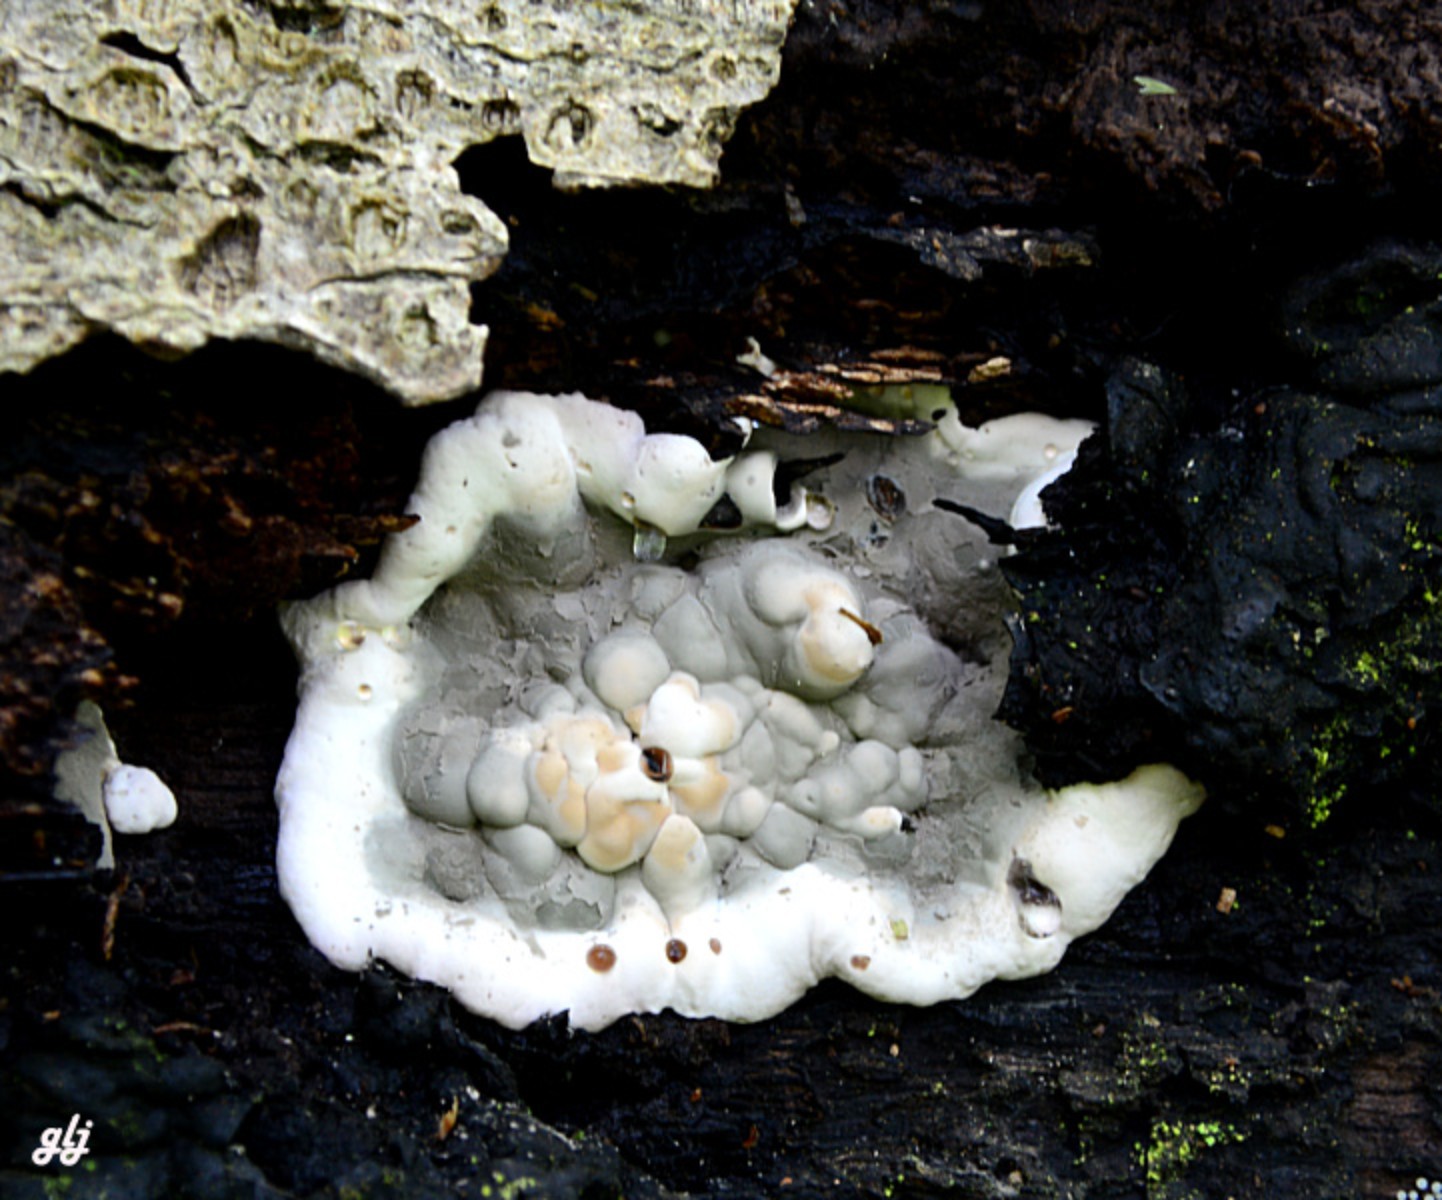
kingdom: Fungi
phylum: Ascomycota
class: Sordariomycetes
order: Xylariales
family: Xylariaceae
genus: Kretzschmaria
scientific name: Kretzschmaria deusta
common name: stor kulsvamp
